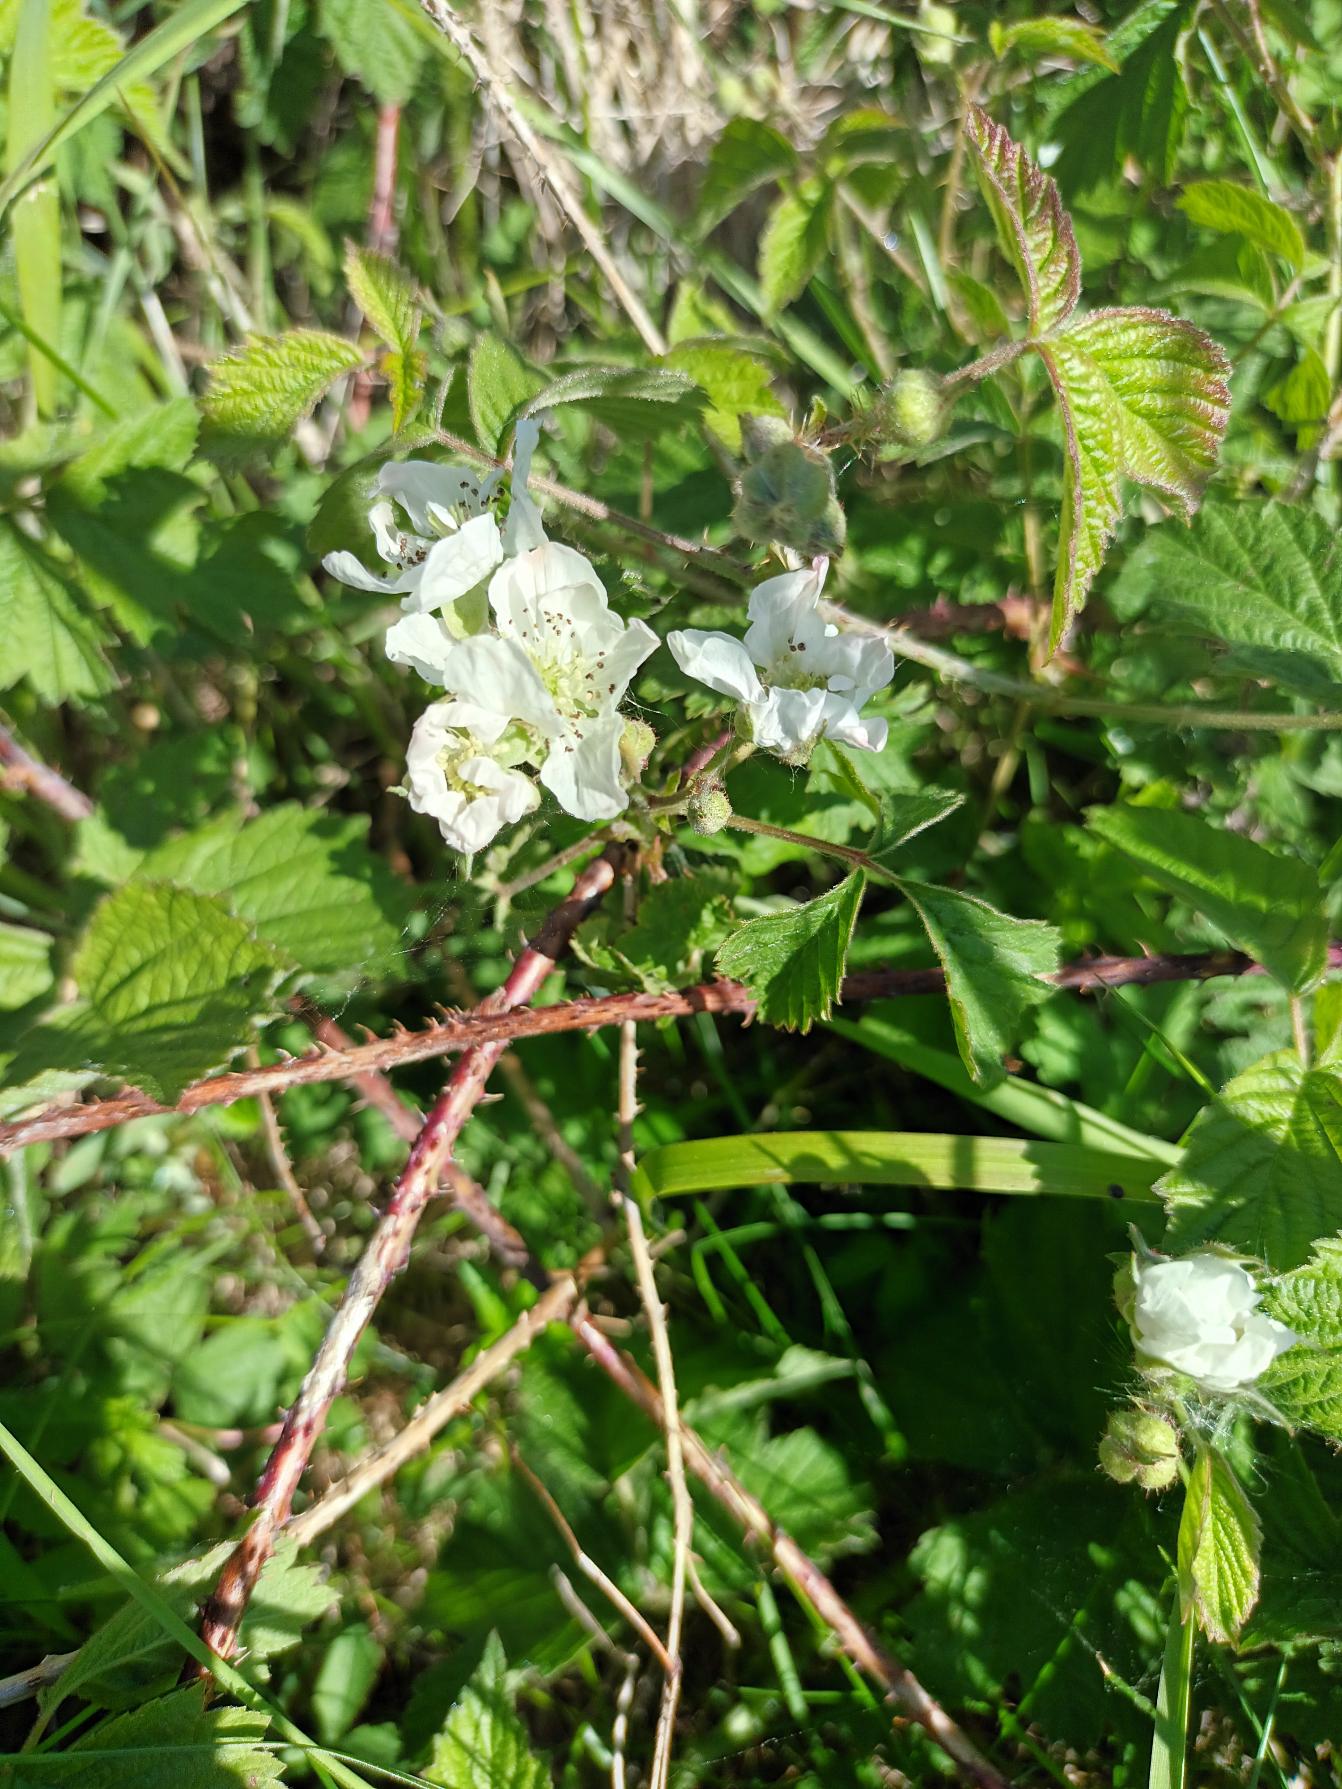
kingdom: Plantae
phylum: Tracheophyta
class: Magnoliopsida
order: Rosales
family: Rosaceae
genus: Rubus
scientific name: Rubus caesius
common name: Korbær
